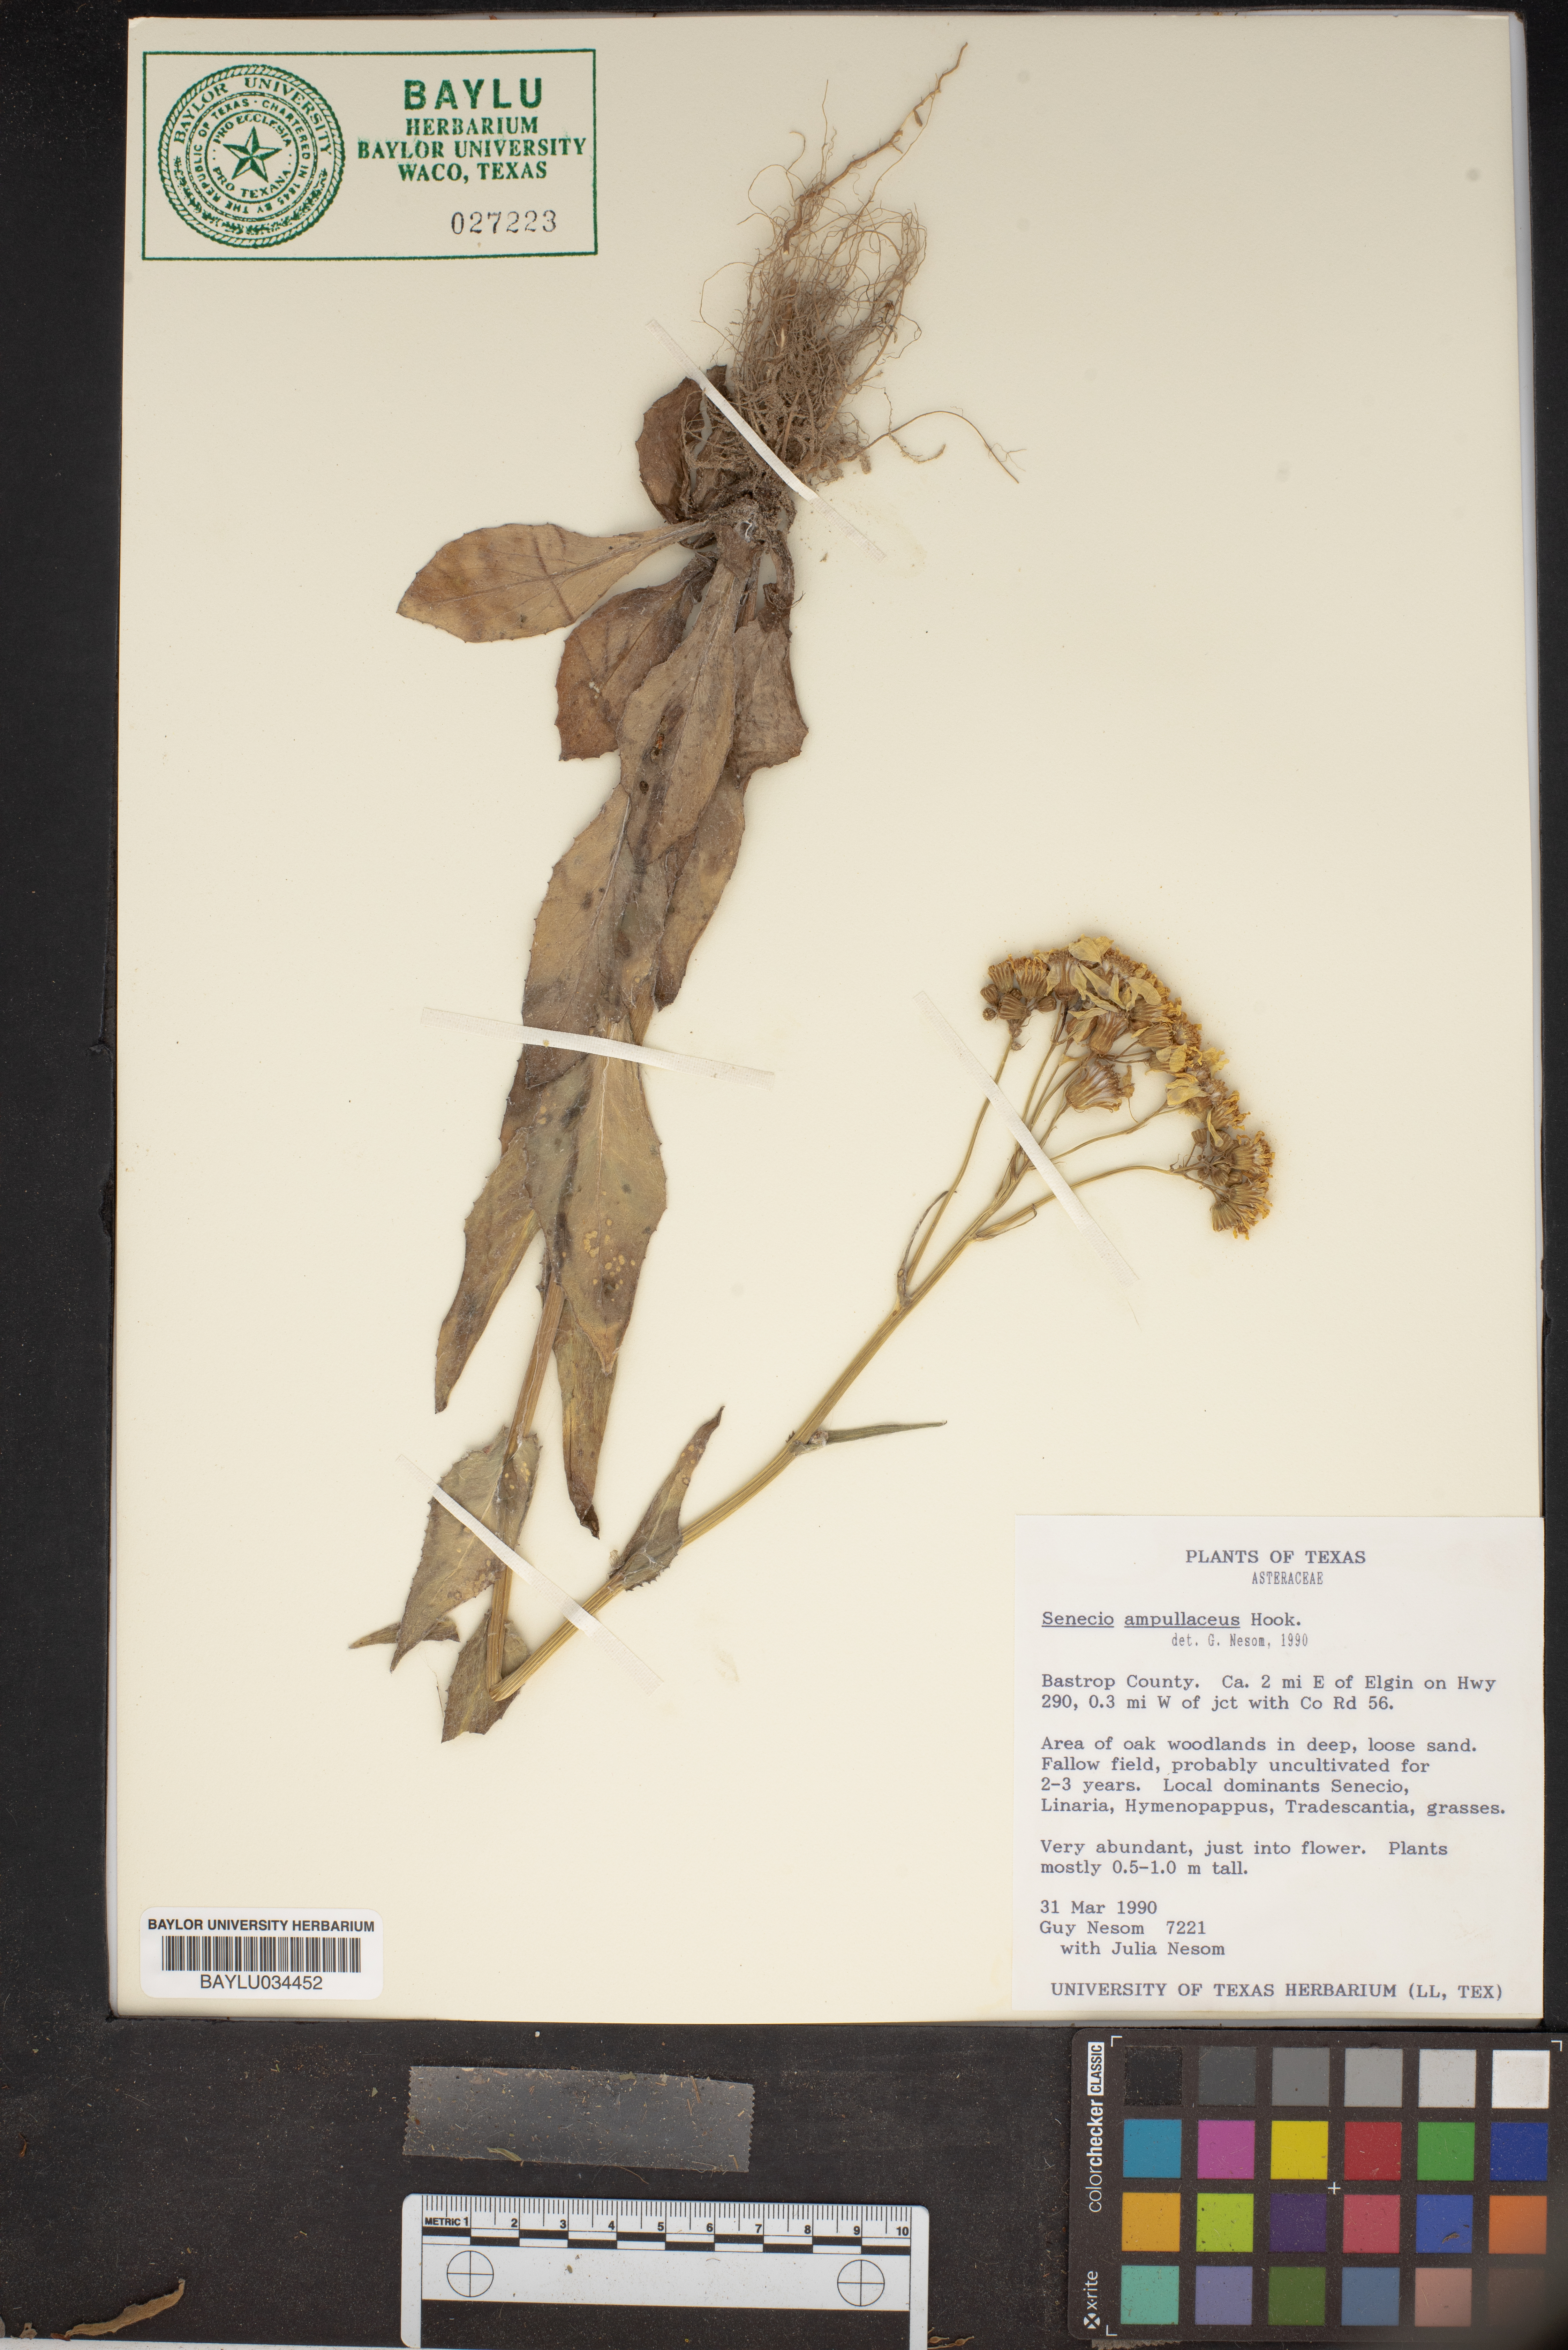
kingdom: Plantae
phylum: Tracheophyta
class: Magnoliopsida
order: Asterales
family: Asteraceae
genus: Senecio
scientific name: Senecio ampullaceus
